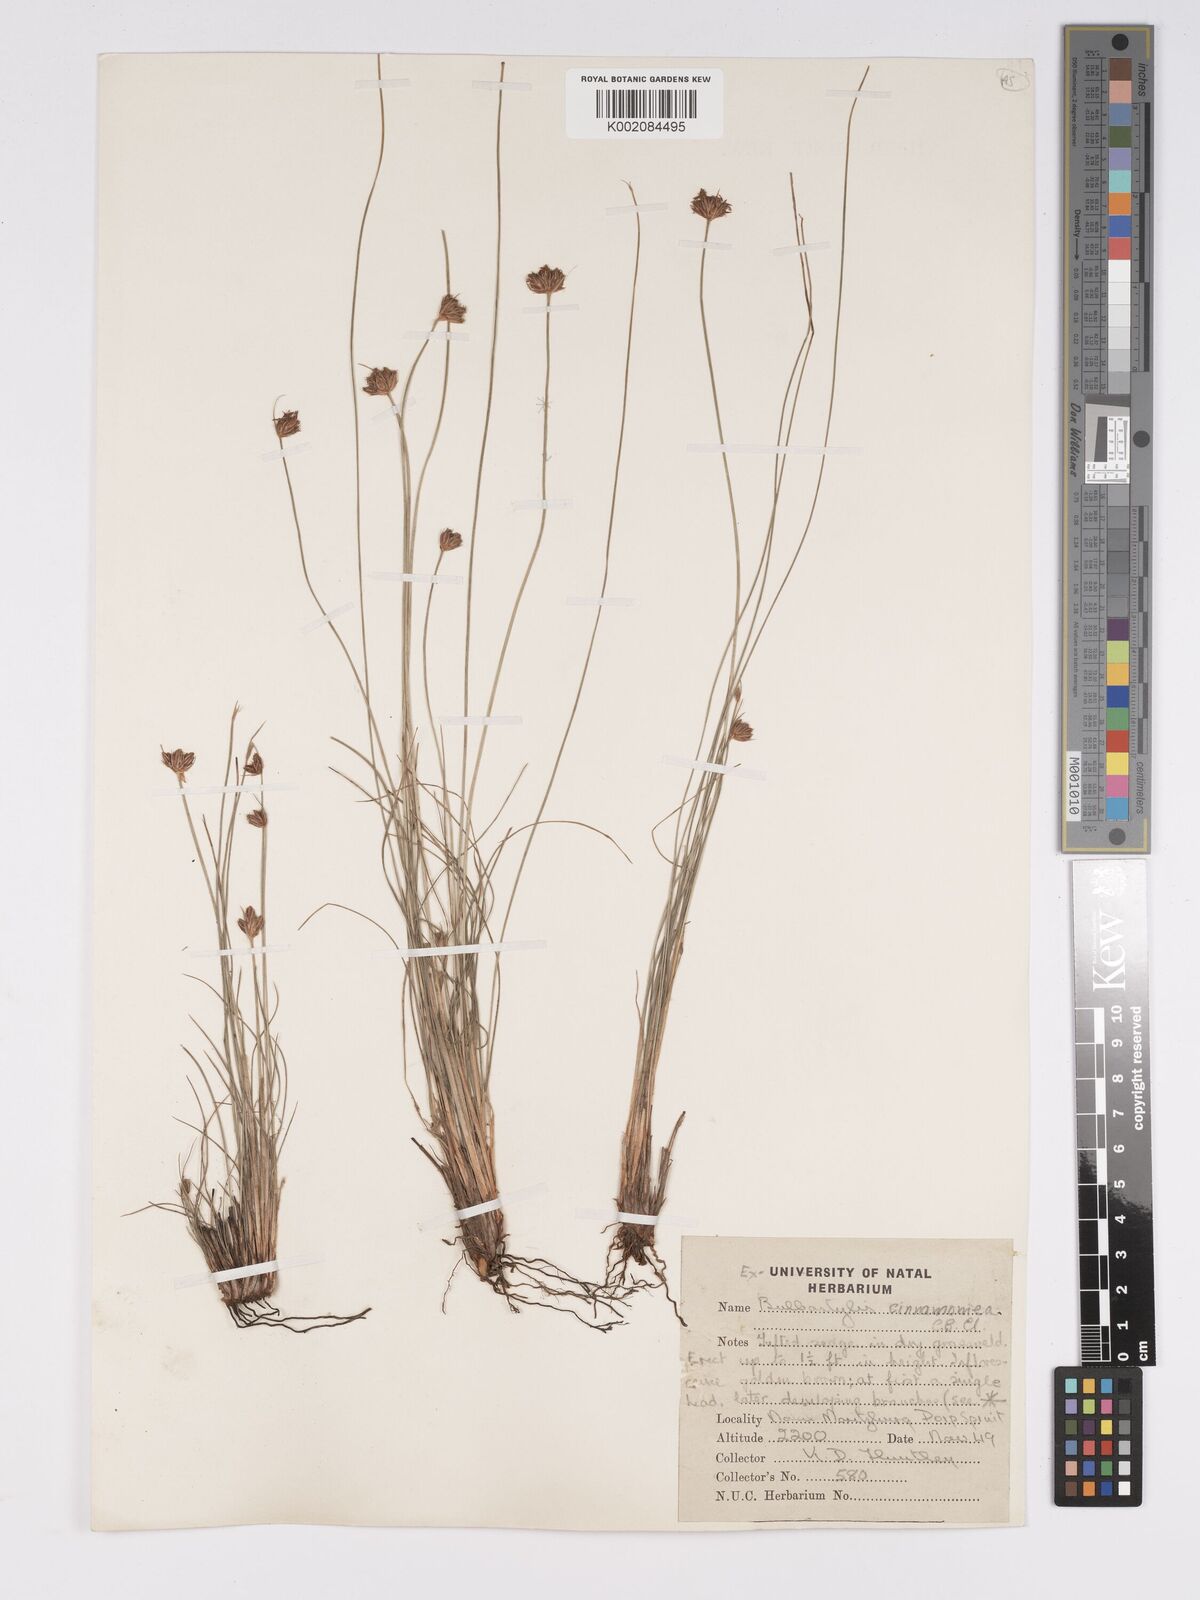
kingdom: Plantae
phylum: Tracheophyta
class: Liliopsida
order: Poales
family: Cyperaceae
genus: Bulbostylis
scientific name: Bulbostylis boeckeleriana
